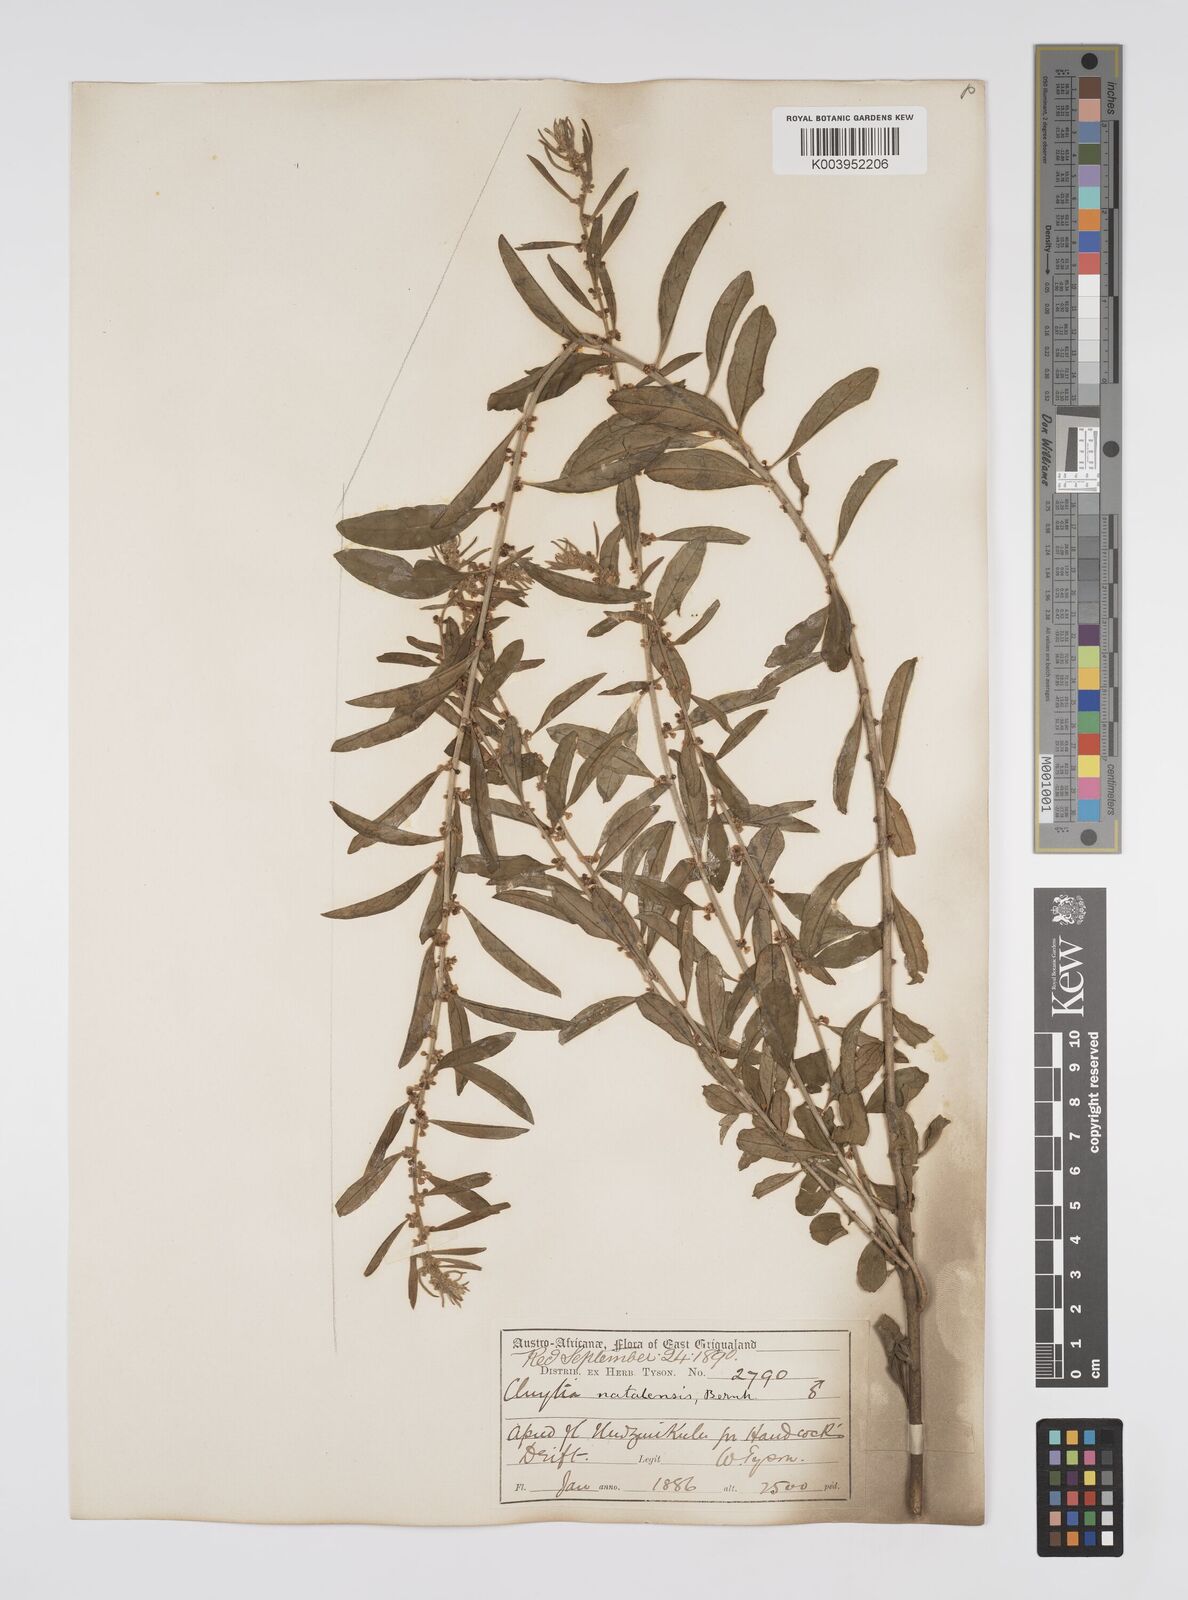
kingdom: Plantae
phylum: Tracheophyta
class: Magnoliopsida
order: Malpighiales
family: Peraceae
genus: Clutia
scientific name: Clutia natalensis
